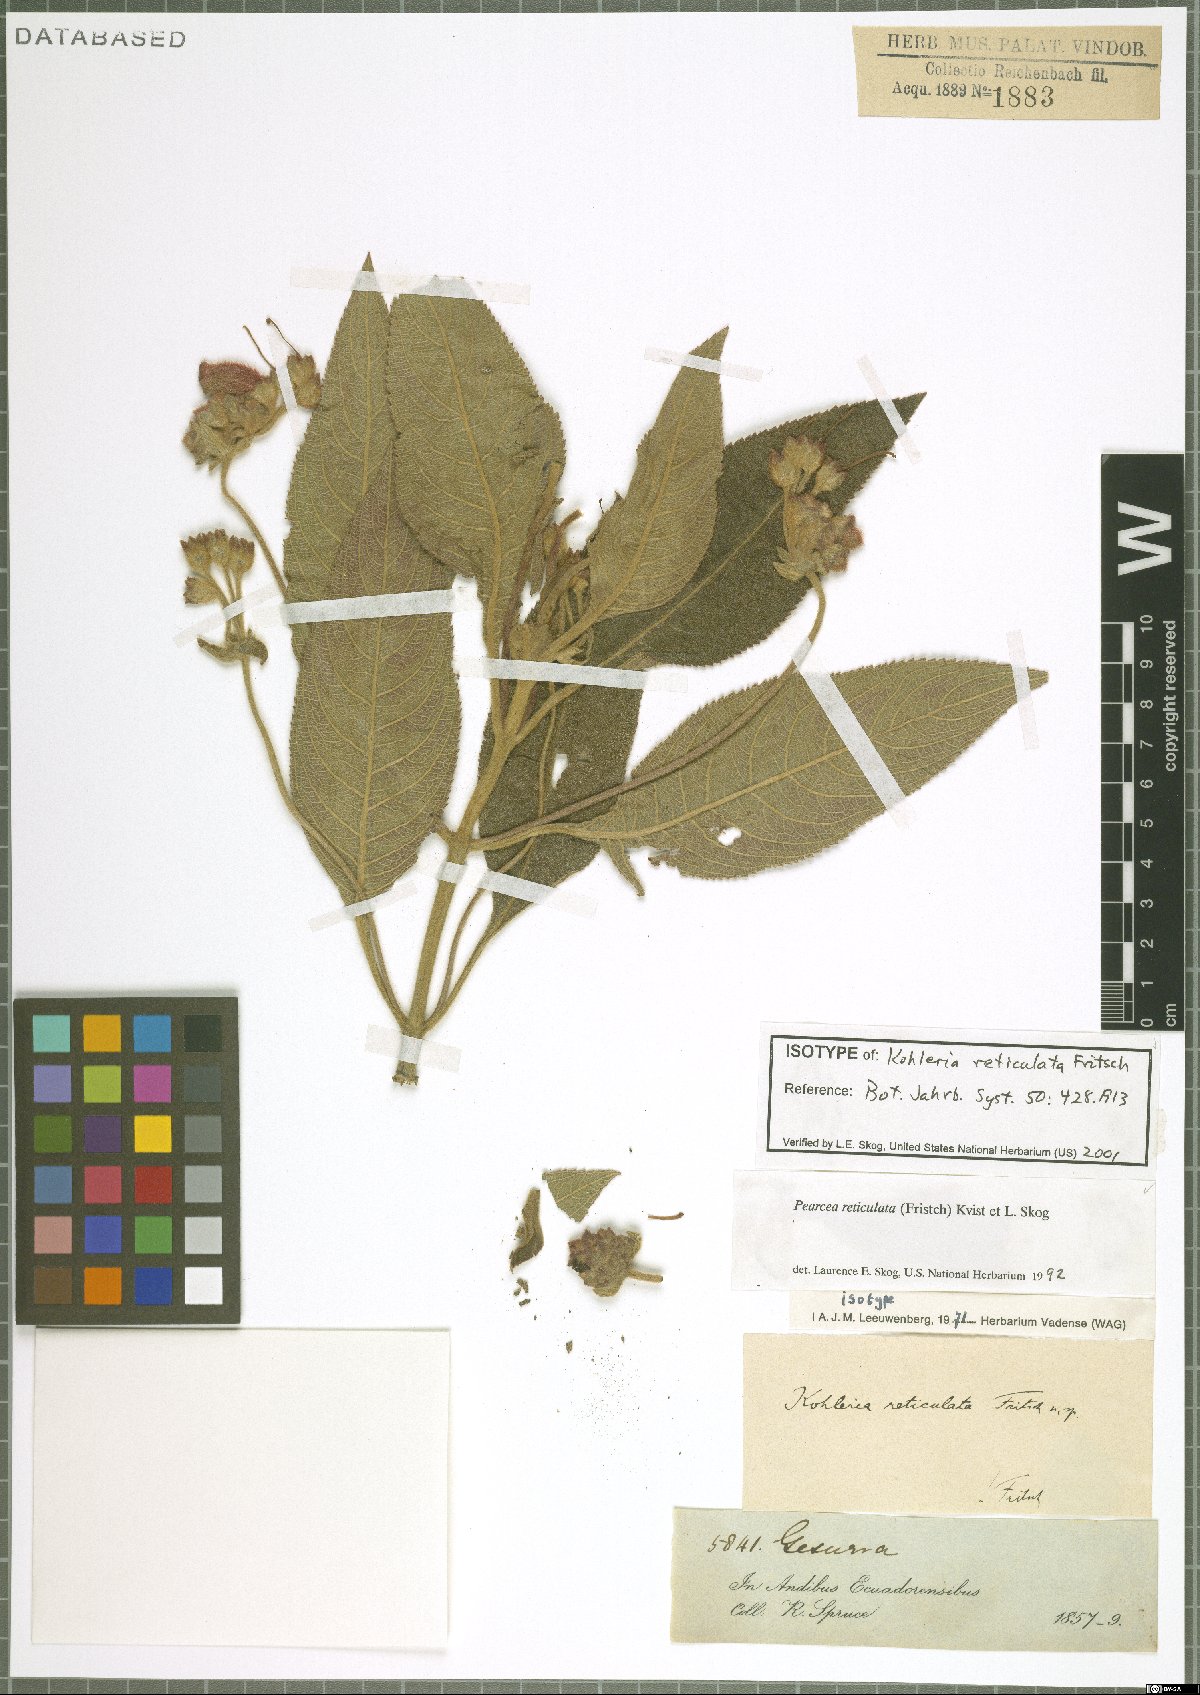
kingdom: Plantae
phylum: Tracheophyta
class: Magnoliopsida
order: Lamiales
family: Gesneriaceae
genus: Pearcea
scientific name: Pearcea reticulata
